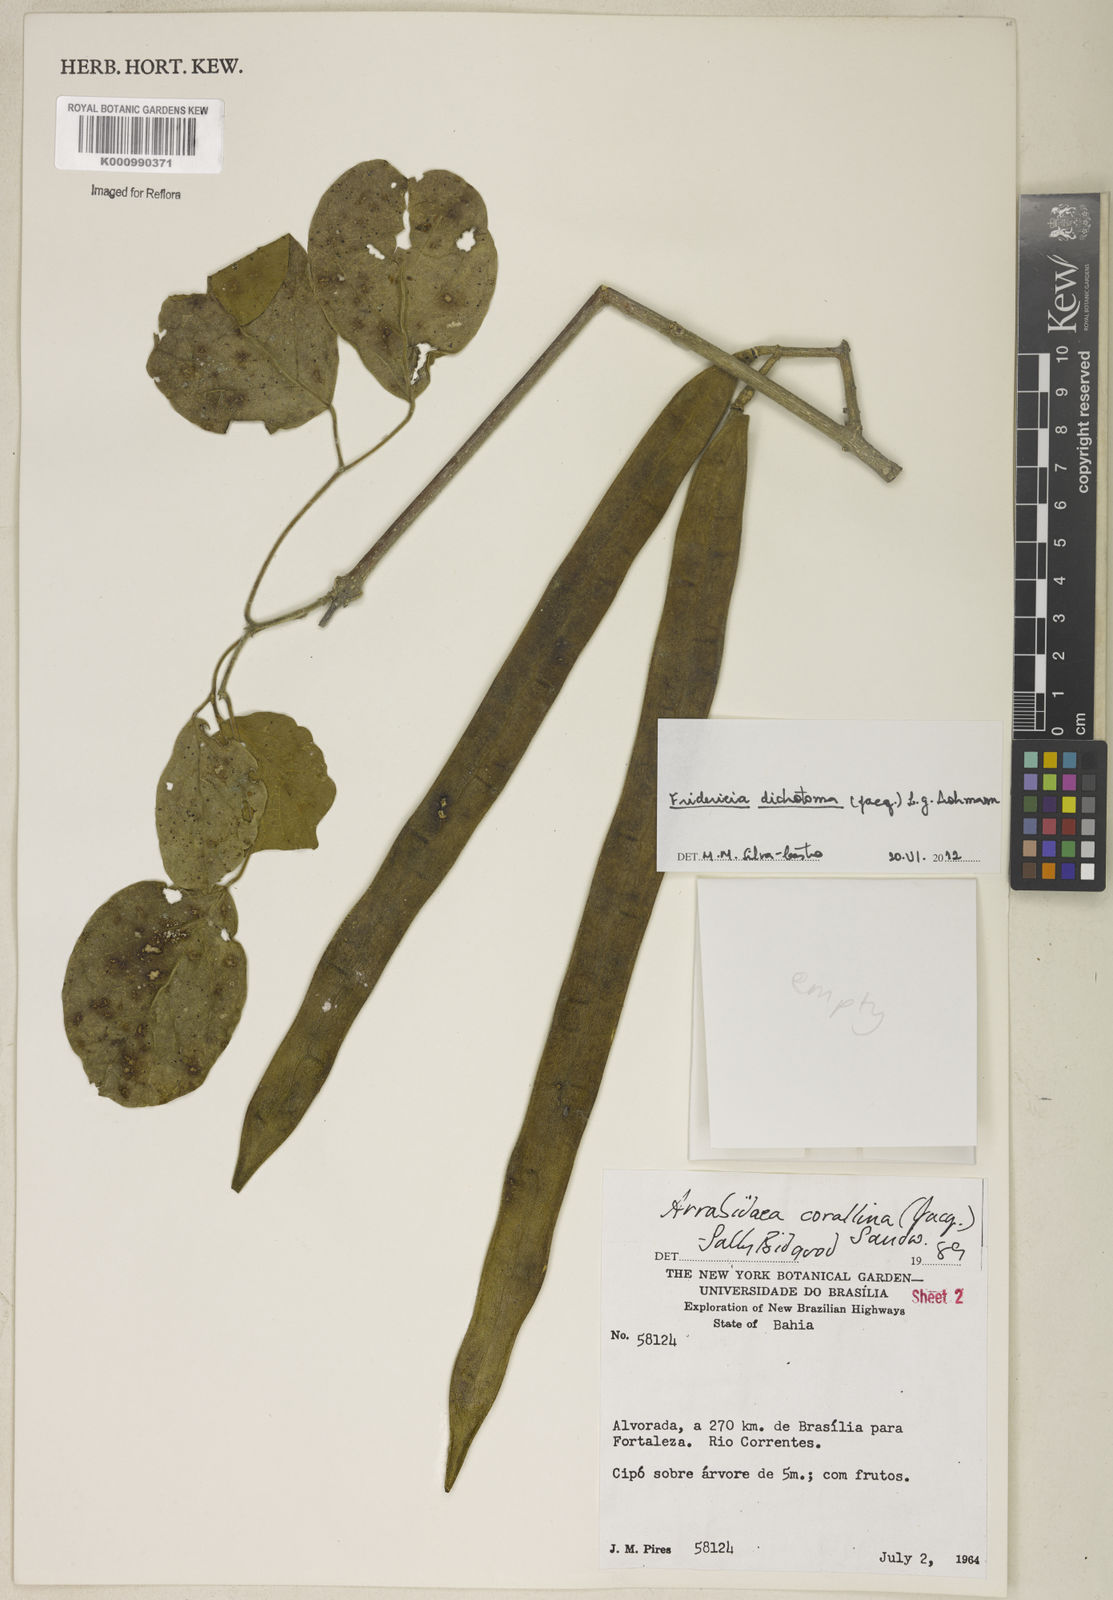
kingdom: Plantae
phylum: Tracheophyta
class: Magnoliopsida
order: Lamiales
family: Bignoniaceae
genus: Tanaecium
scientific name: Tanaecium dichotomum
